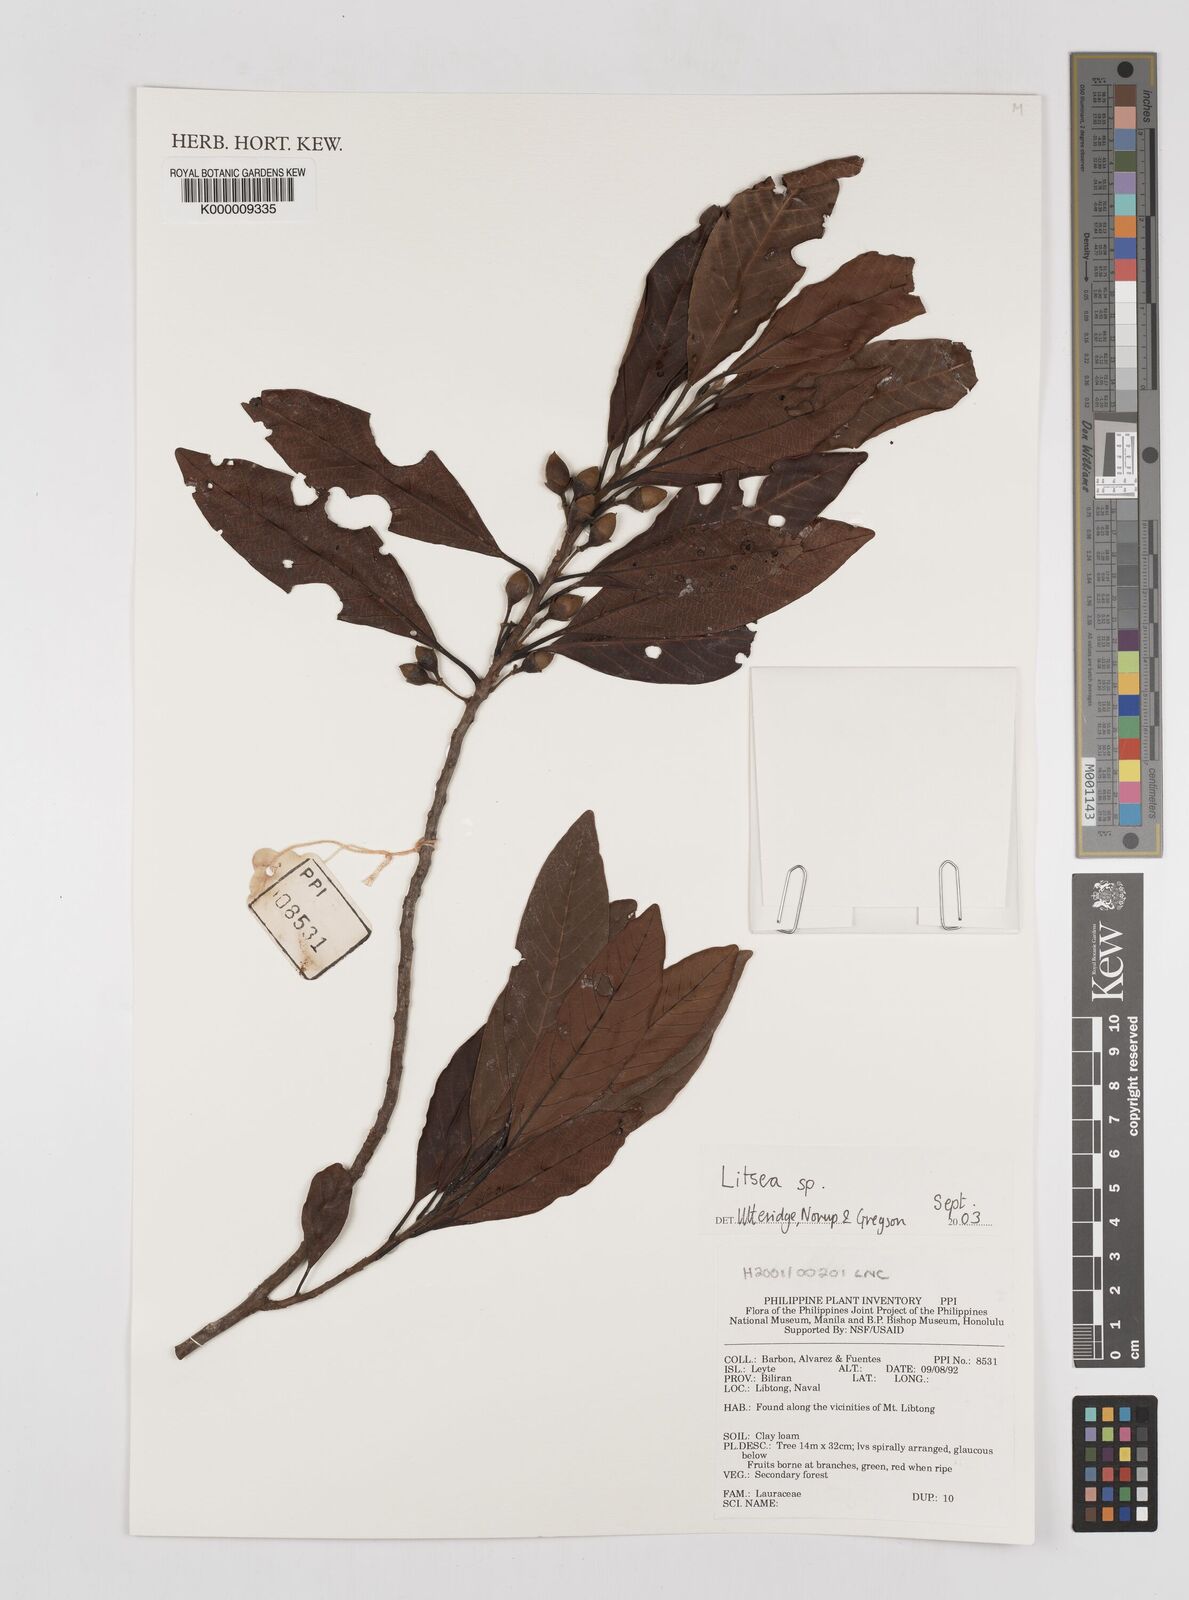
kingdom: Plantae
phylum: Tracheophyta
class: Magnoliopsida
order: Laurales
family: Lauraceae
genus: Litsea
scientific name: Litsea
